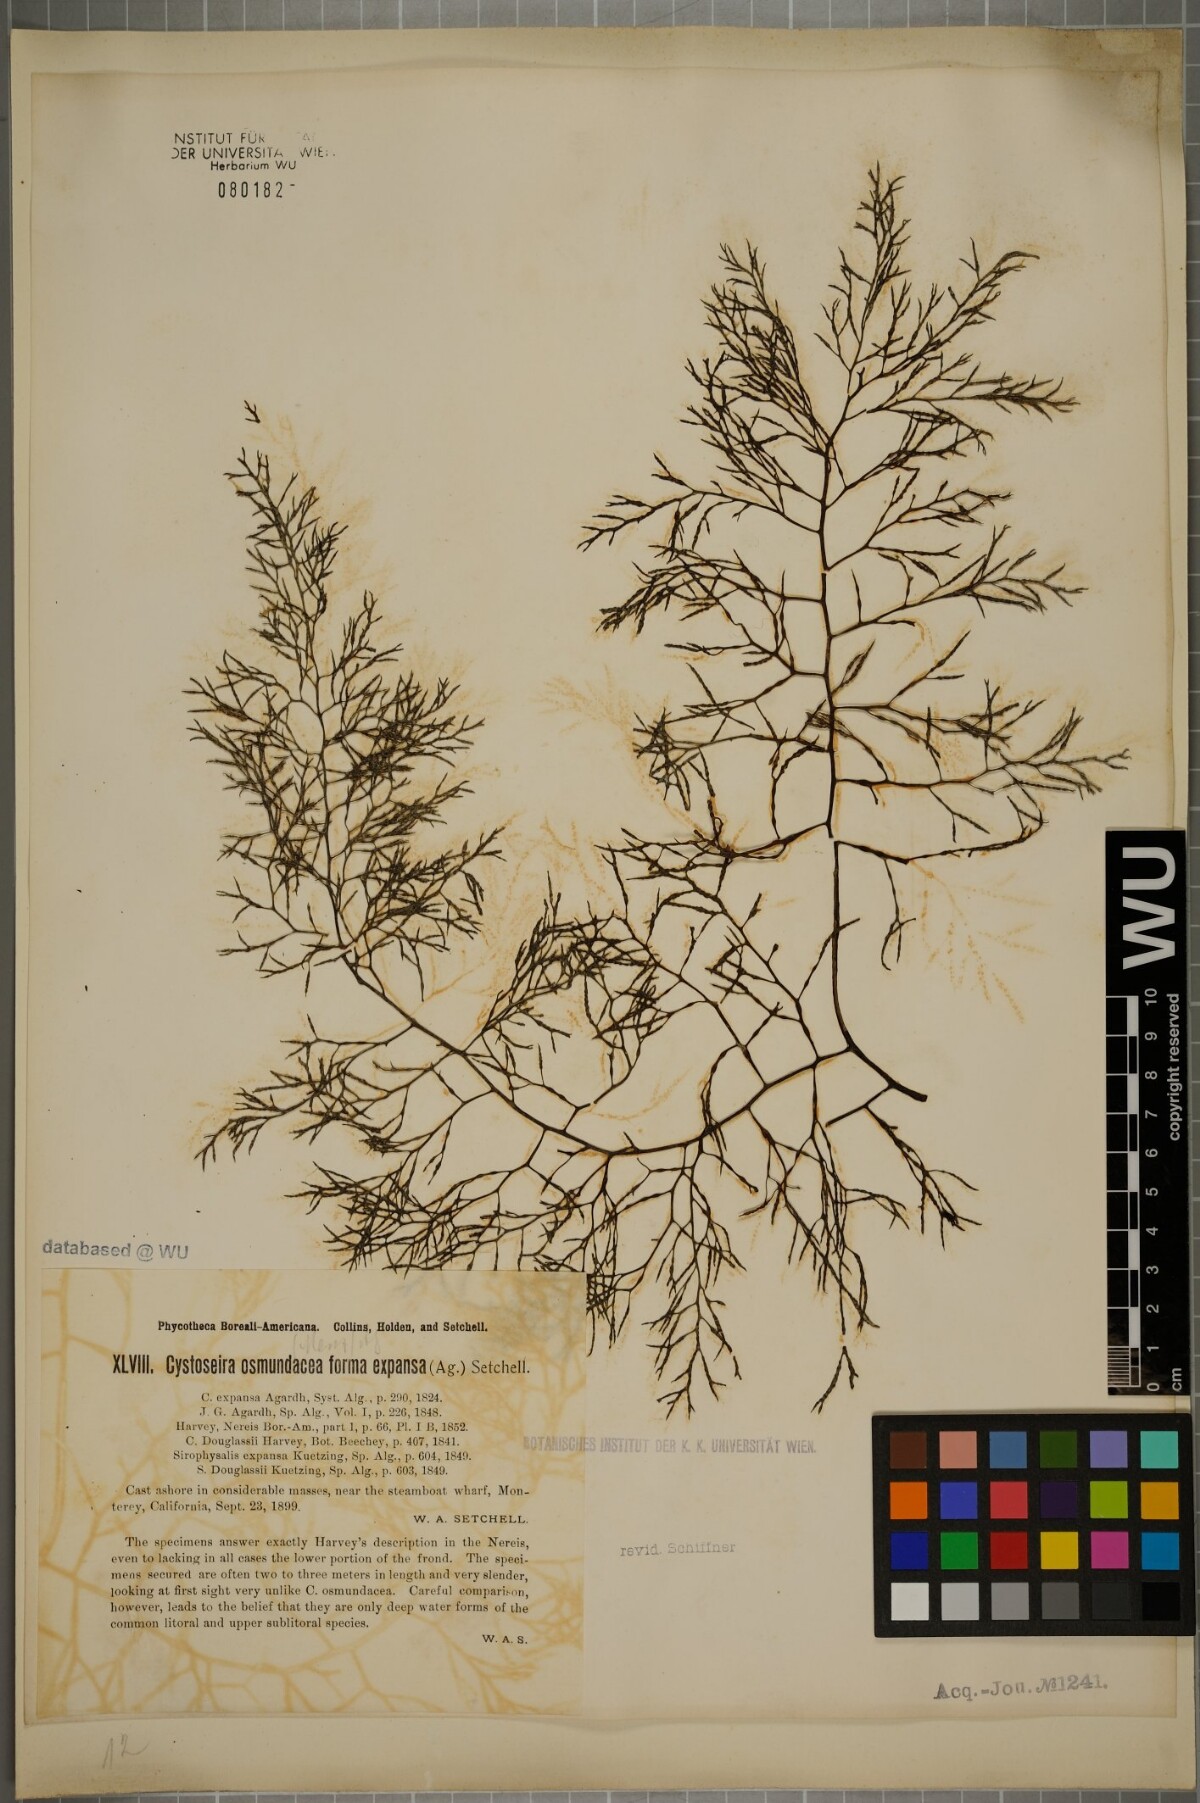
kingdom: Chromista
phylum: Ochrophyta
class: Phaeophyceae
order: Fucales
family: Sargassaceae
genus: Cystoseira
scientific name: Cystoseira osmundacea
